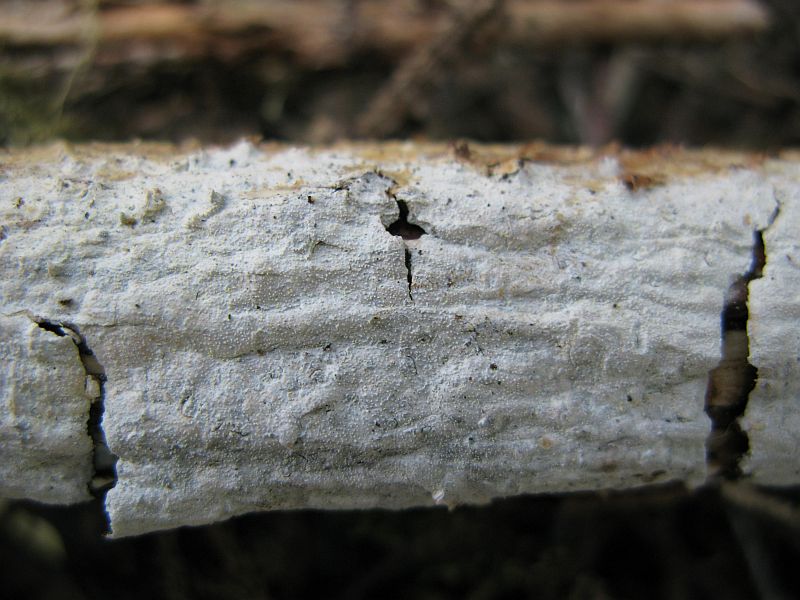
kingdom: Fungi
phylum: Basidiomycota
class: Agaricomycetes
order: Hymenochaetales
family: Rickenellaceae
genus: Resinicium
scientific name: Resinicium bicolor
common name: almindelig vokstand
